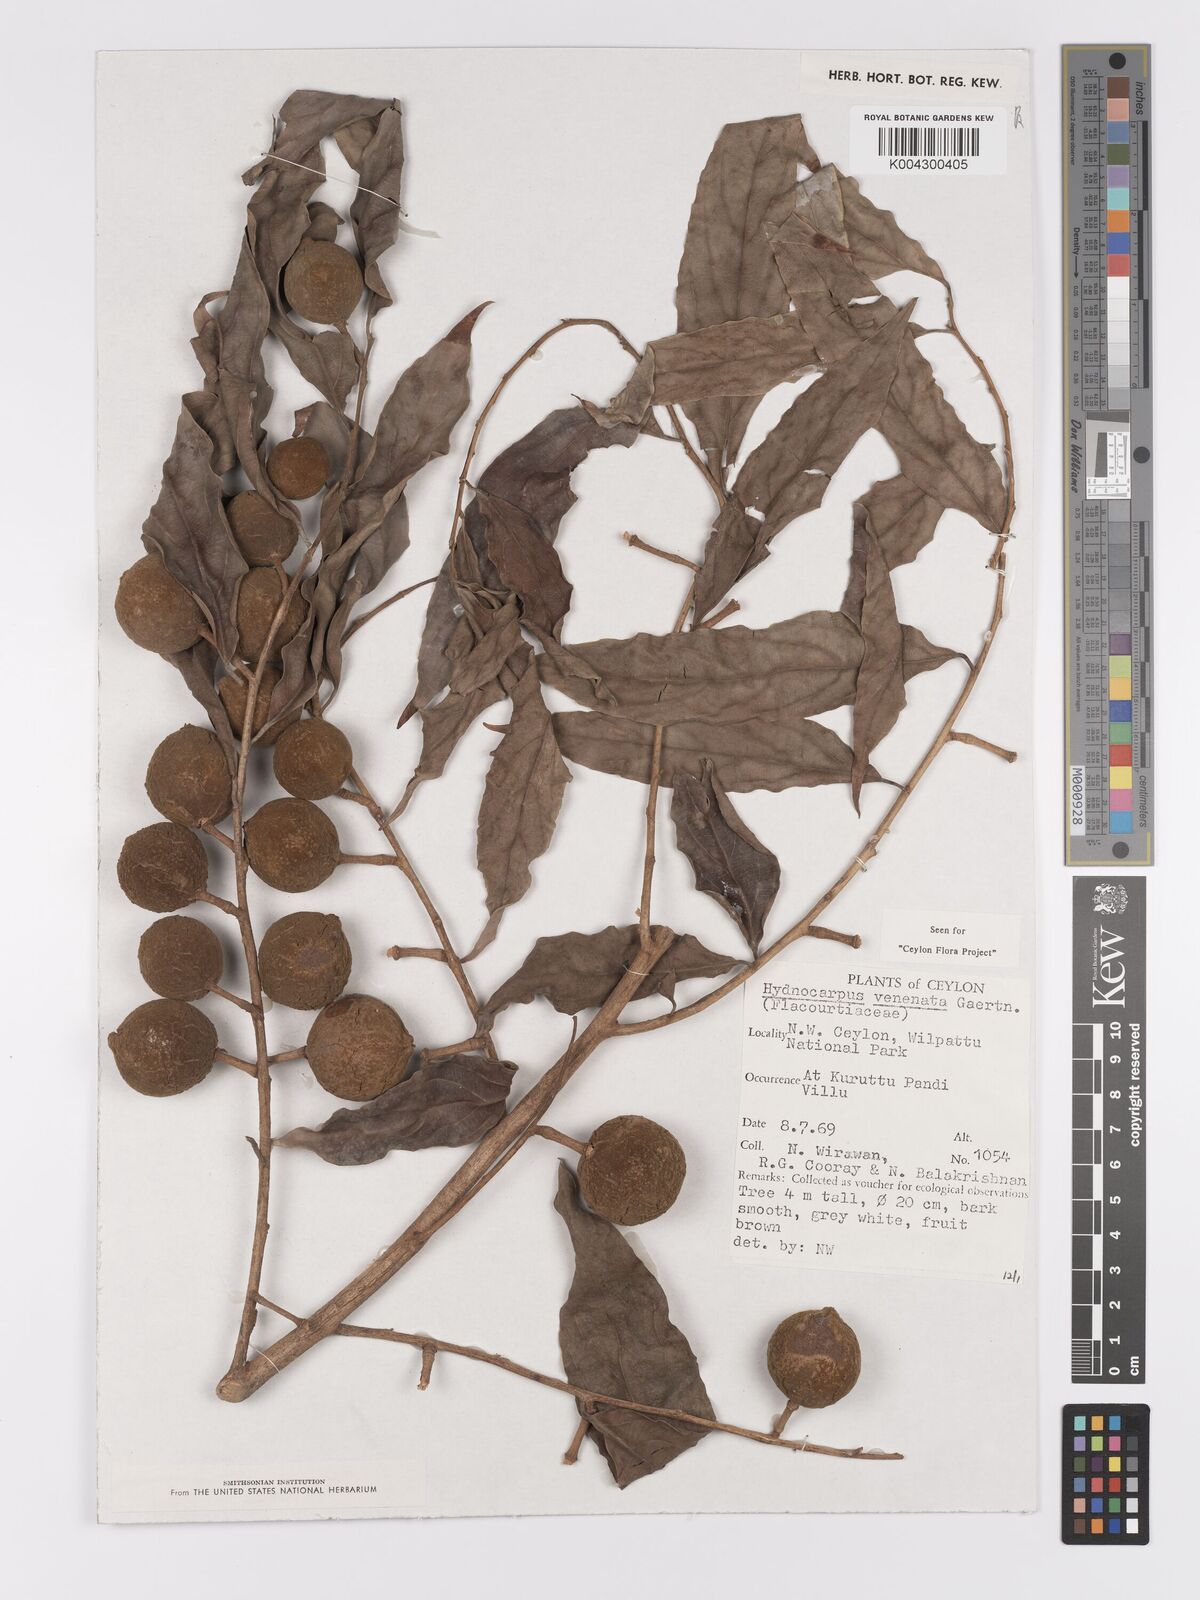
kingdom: Plantae
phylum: Tracheophyta
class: Magnoliopsida
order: Malpighiales
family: Achariaceae
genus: Hydnocarpus
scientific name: Hydnocarpus venenatus
